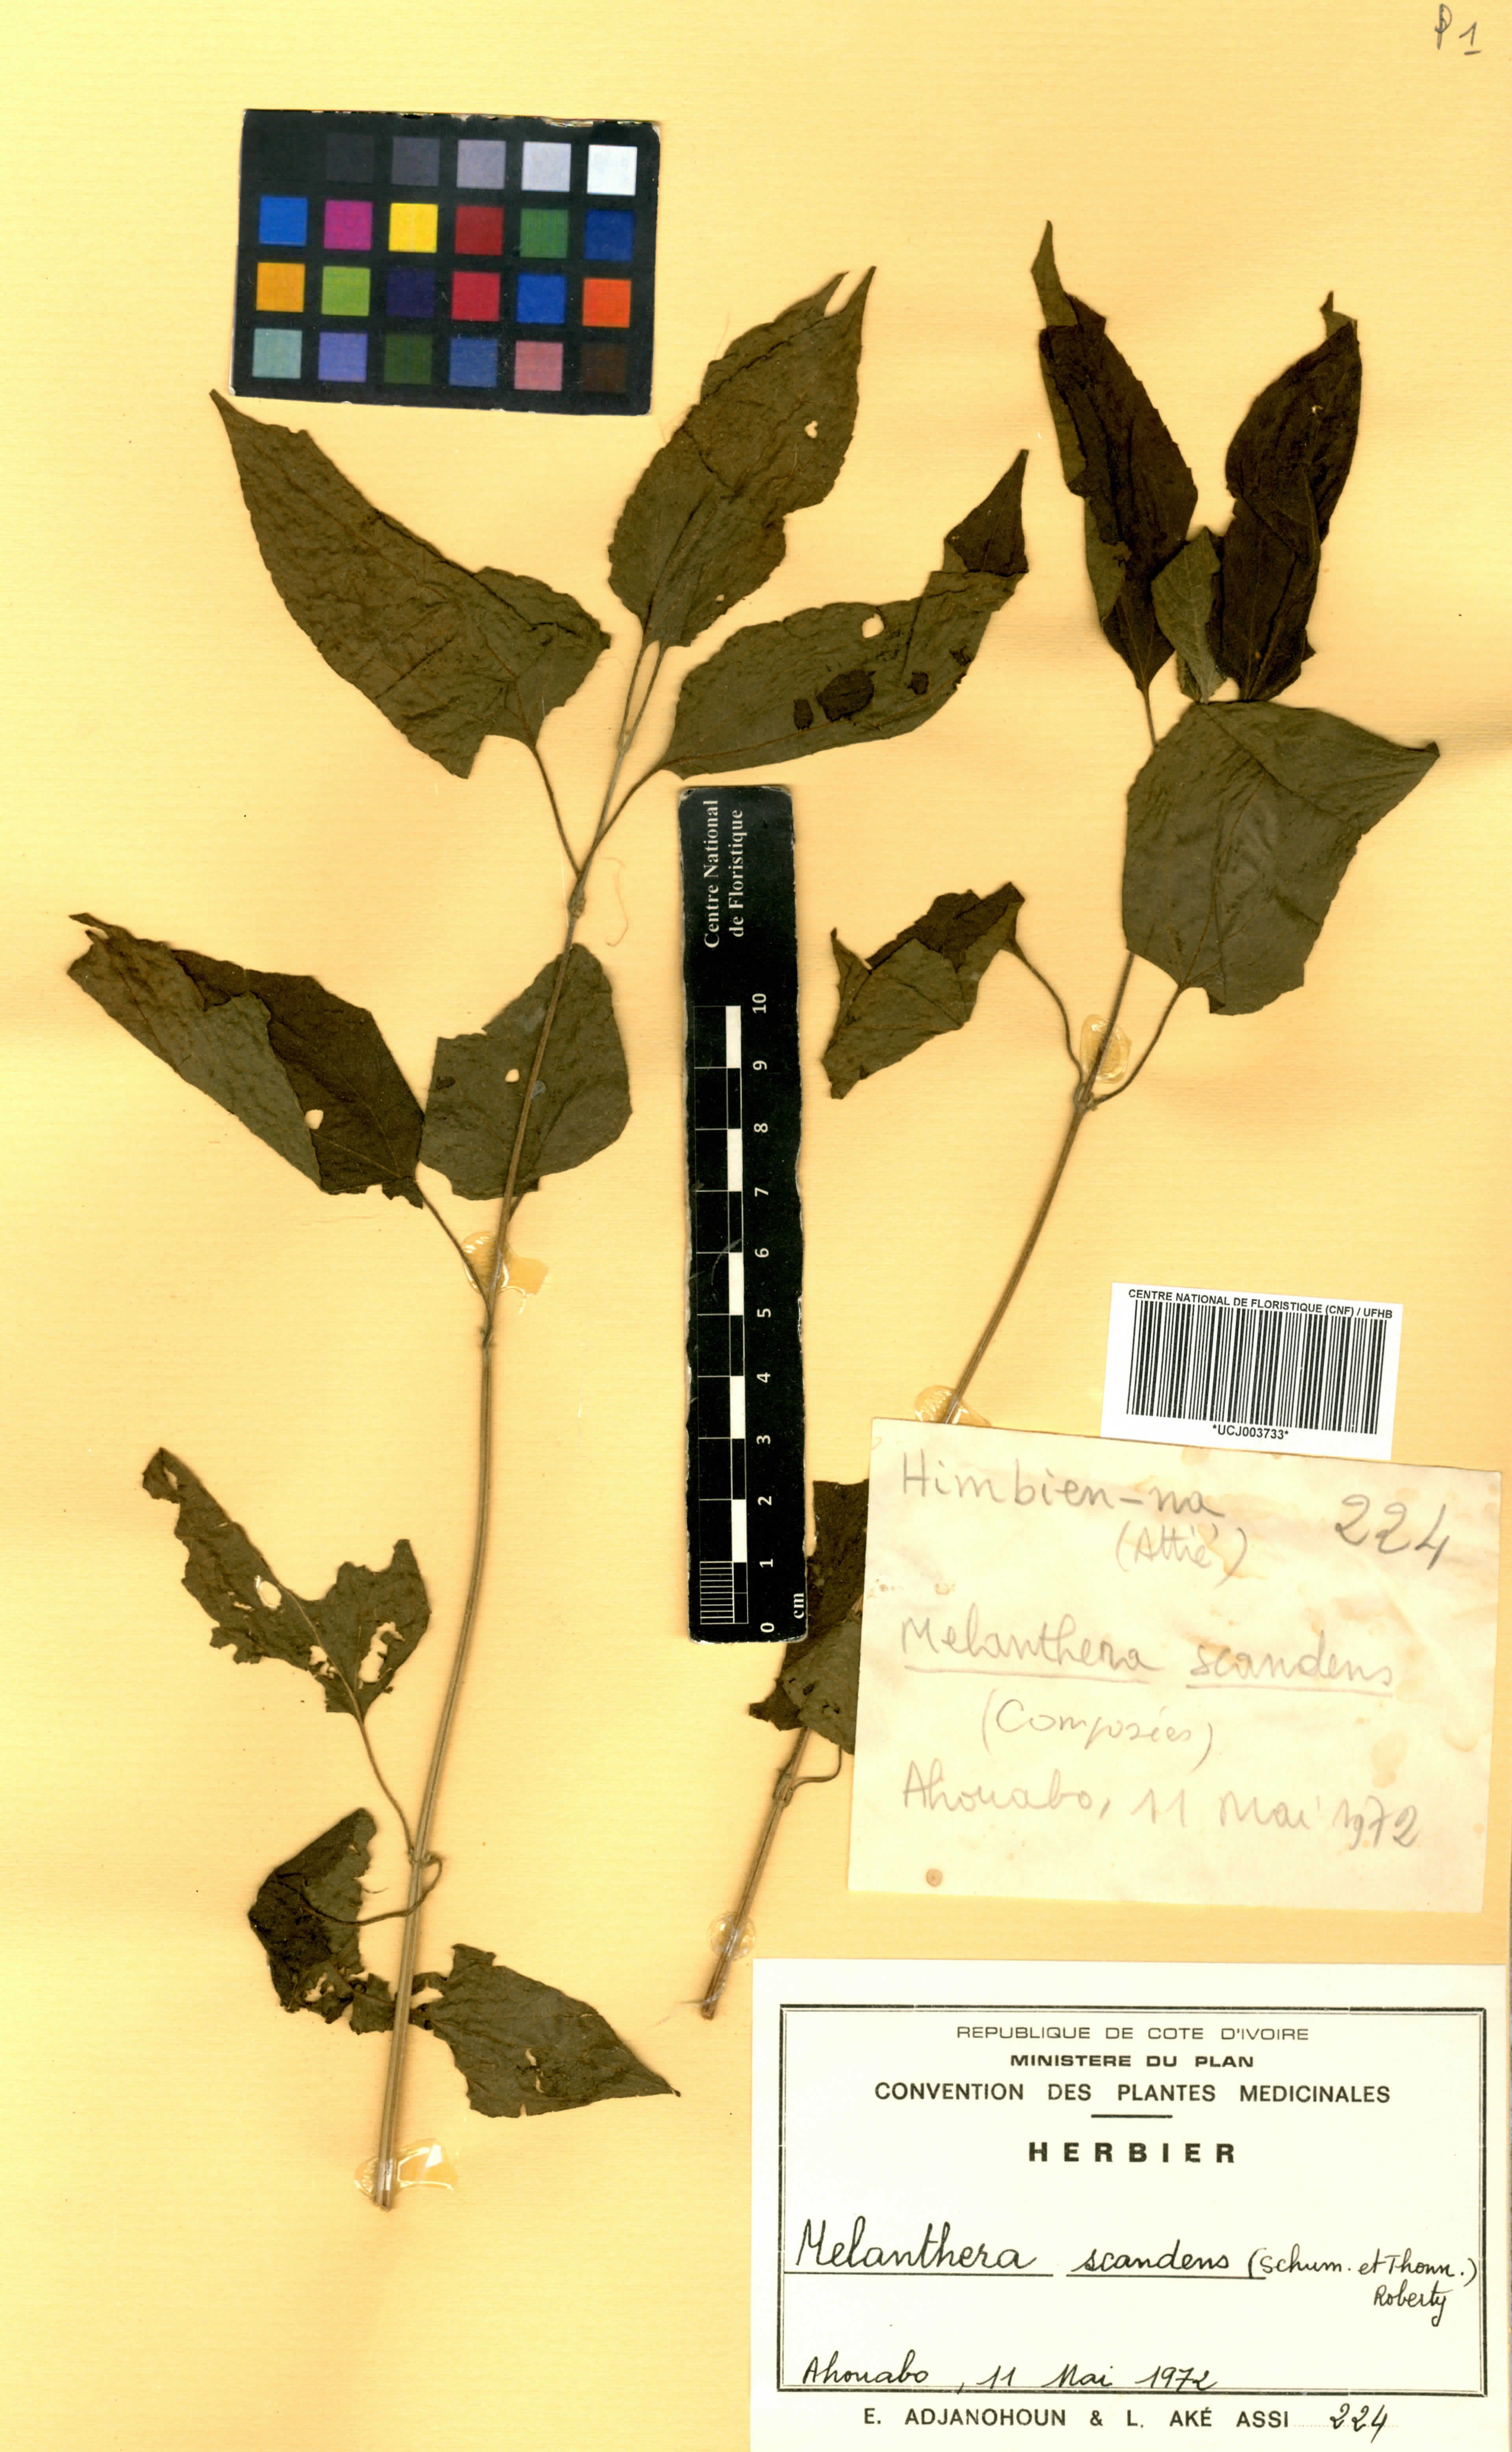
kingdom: Plantae
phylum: Tracheophyta
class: Magnoliopsida
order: Asterales
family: Asteraceae
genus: Melanthera
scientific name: Melanthera scandens
